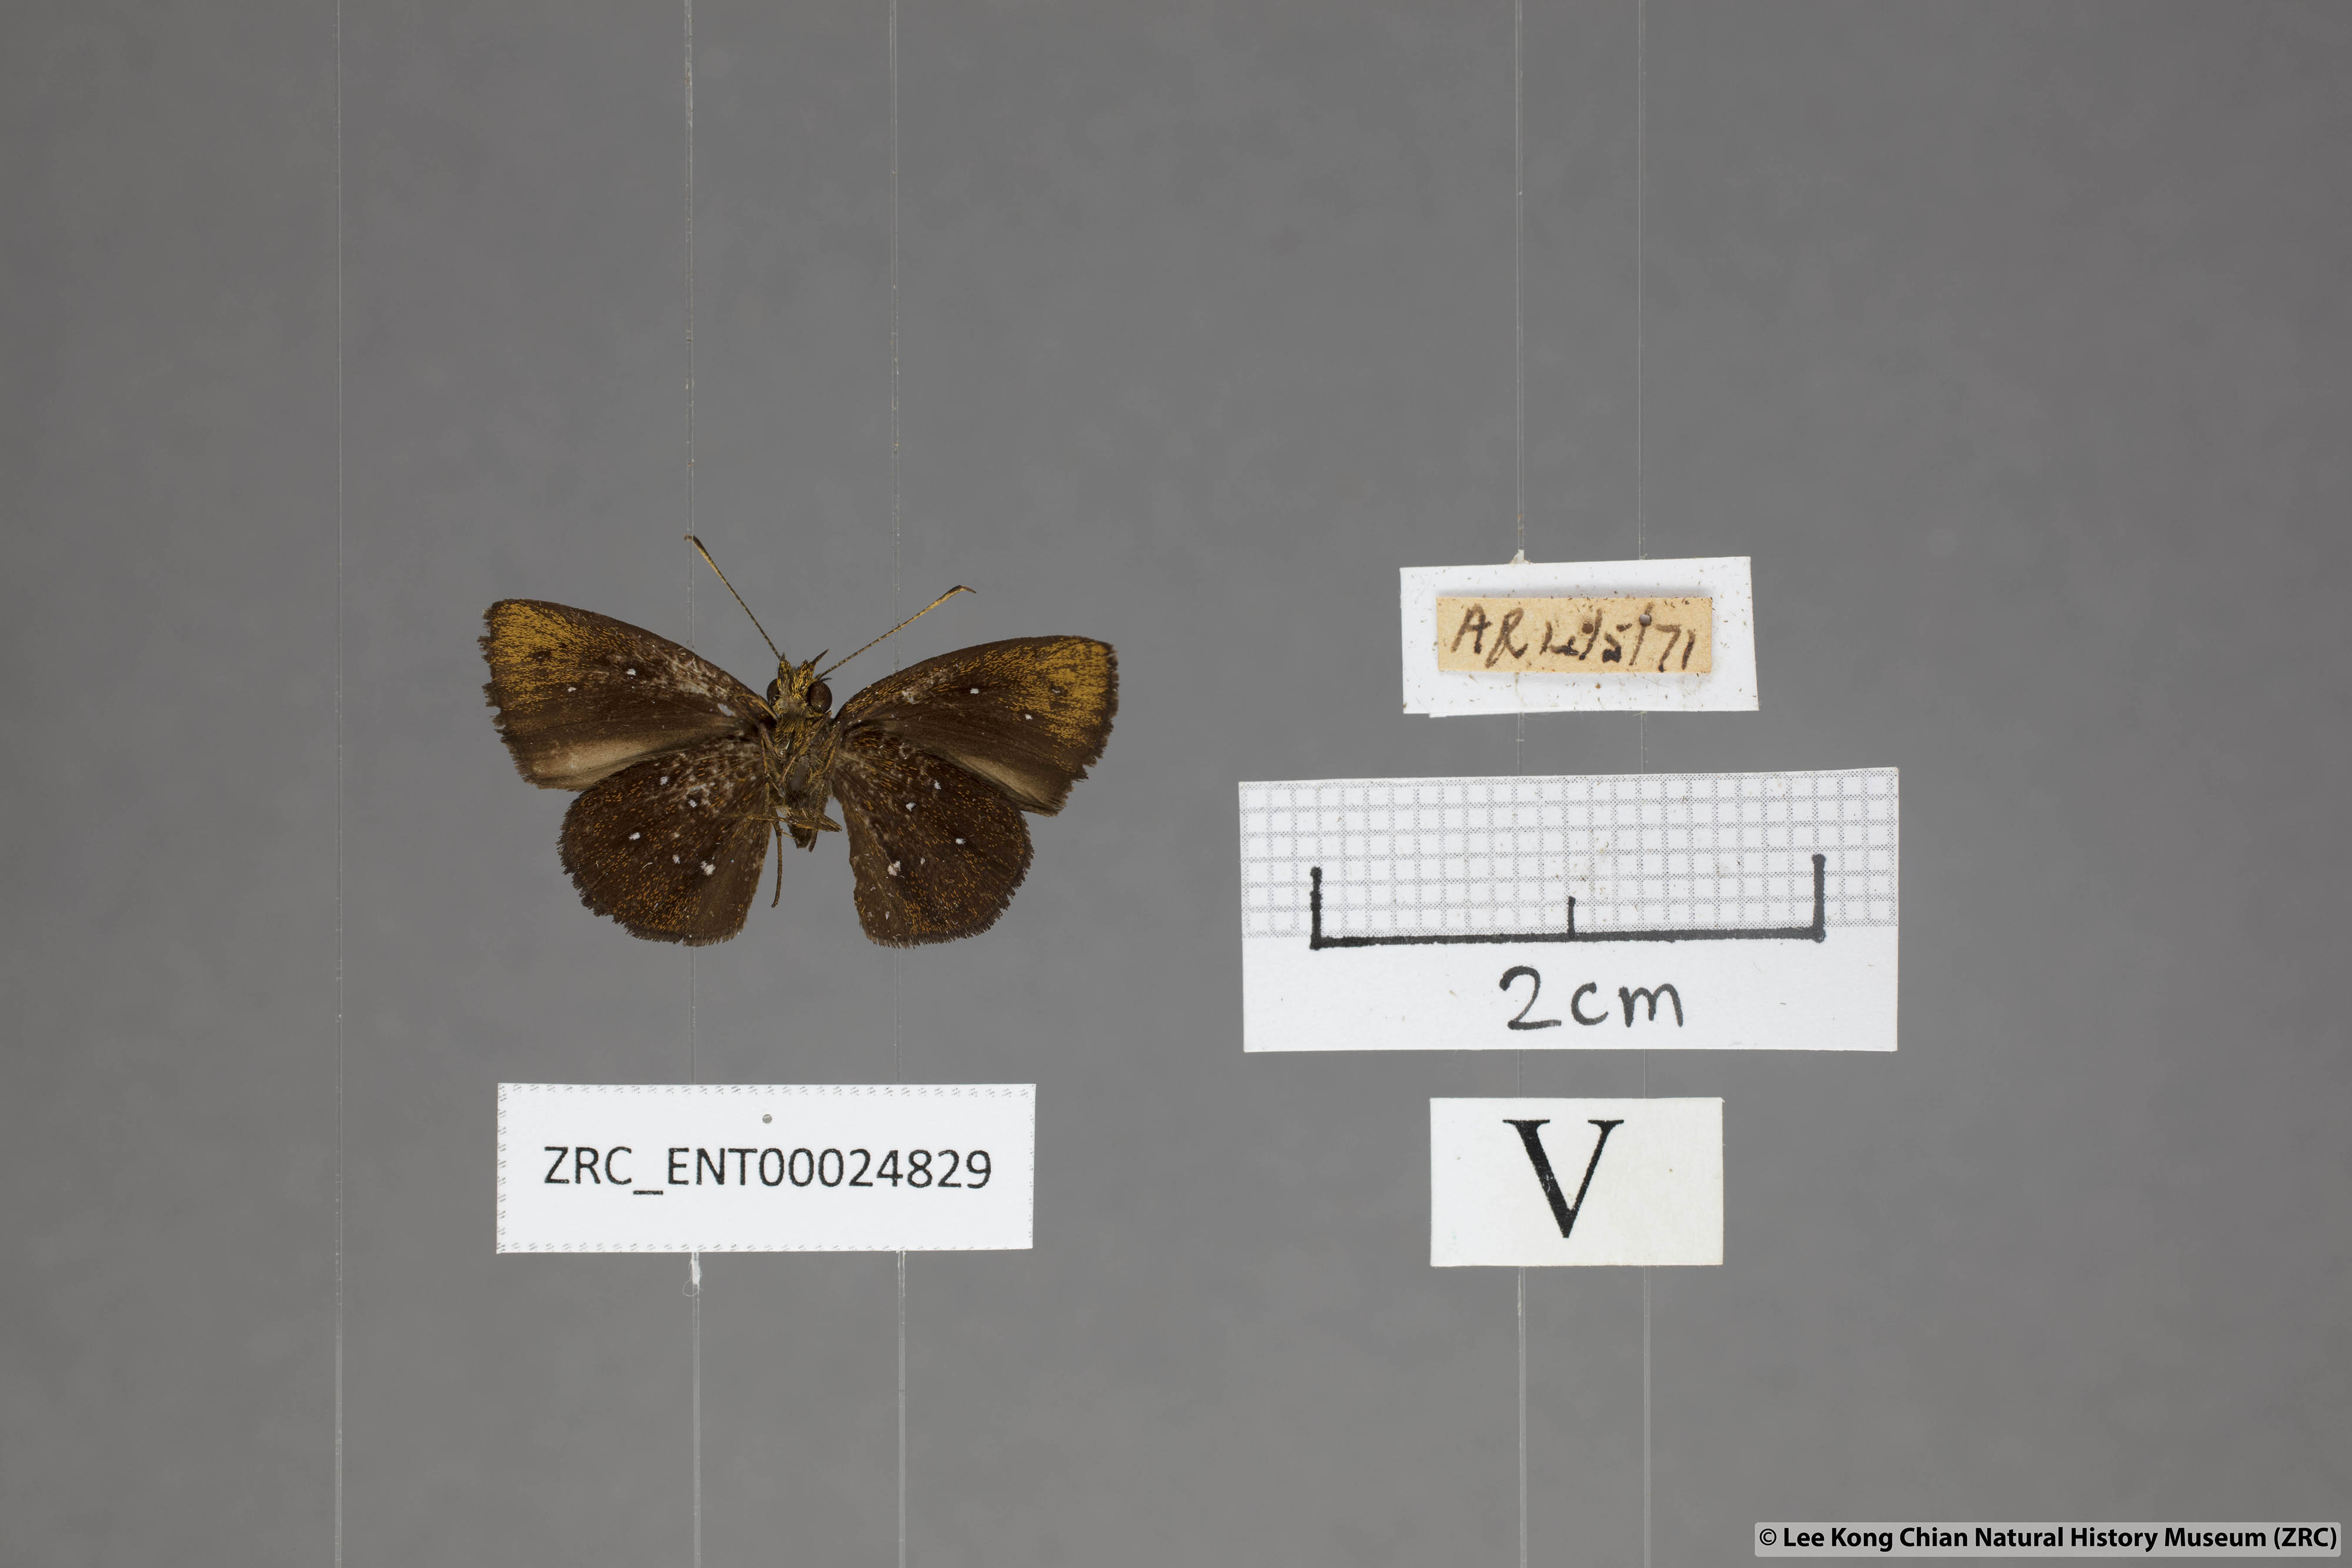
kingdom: Animalia
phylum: Arthropoda
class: Insecta
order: Lepidoptera
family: Hesperiidae
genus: Iambrix
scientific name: Iambrix stellifer
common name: Starry bob
